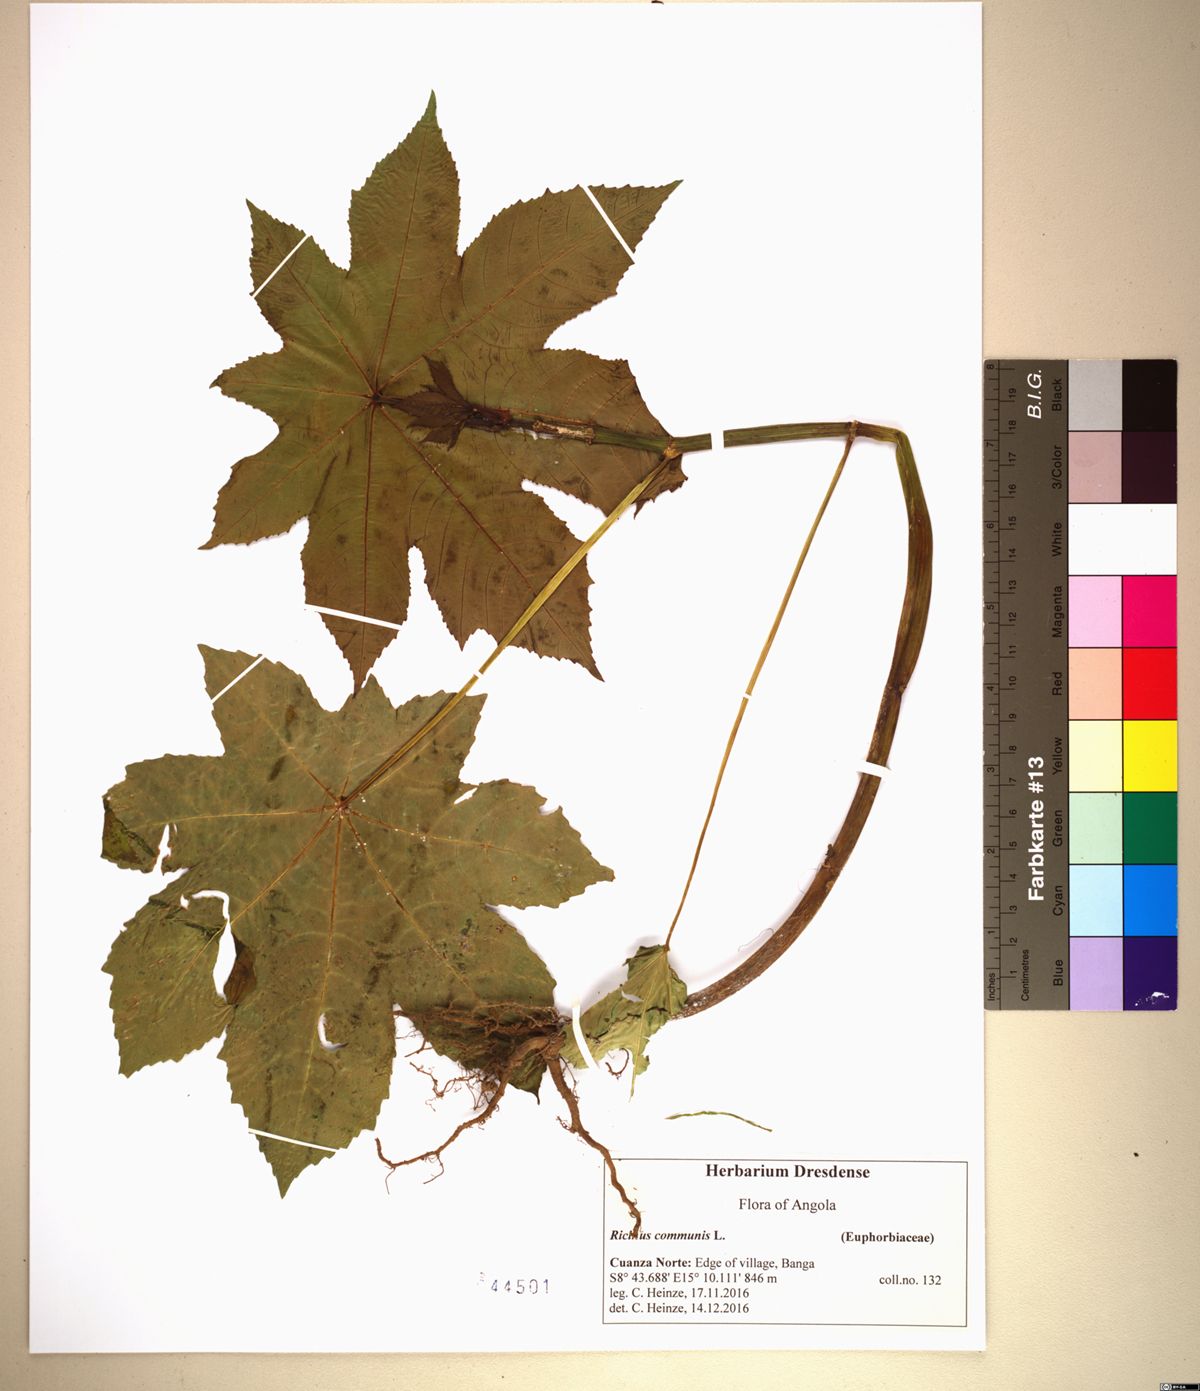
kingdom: Plantae
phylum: Tracheophyta
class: Magnoliopsida
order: Malpighiales
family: Euphorbiaceae
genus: Ricinus
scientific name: Ricinus communis
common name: Castor-oil-plant
